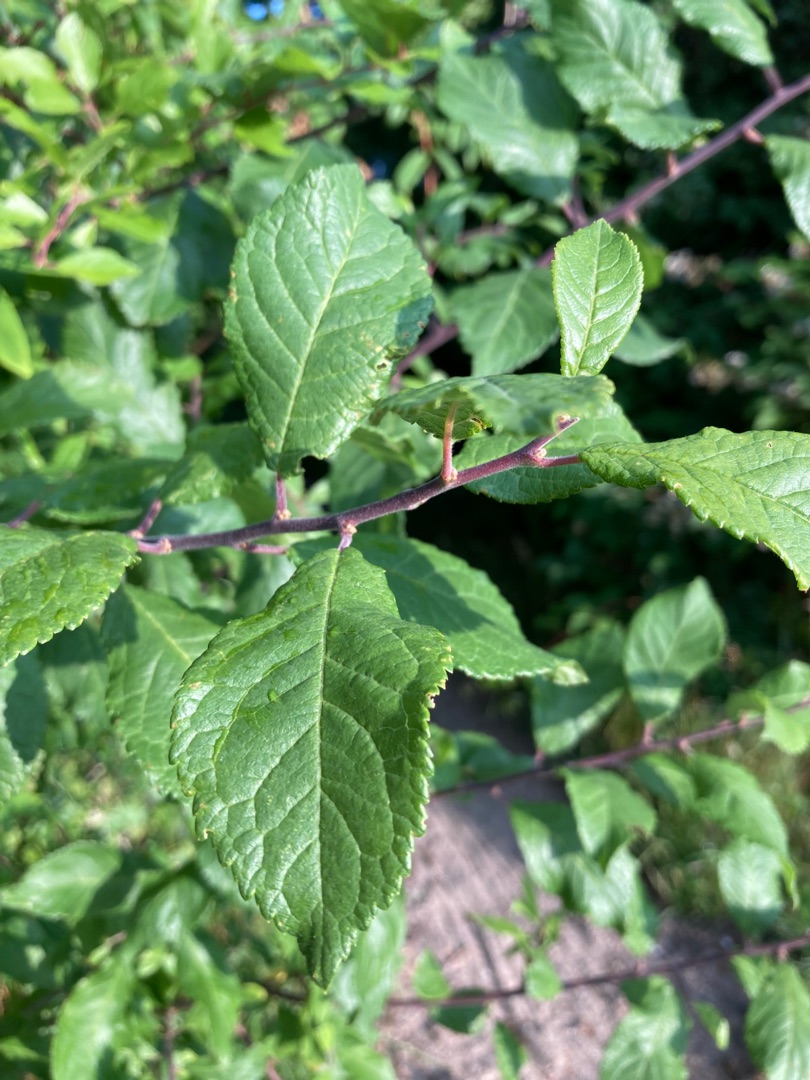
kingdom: Plantae
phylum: Tracheophyta
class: Magnoliopsida
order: Rosales
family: Rosaceae
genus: Prunus
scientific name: Prunus spinosa
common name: Slåen
